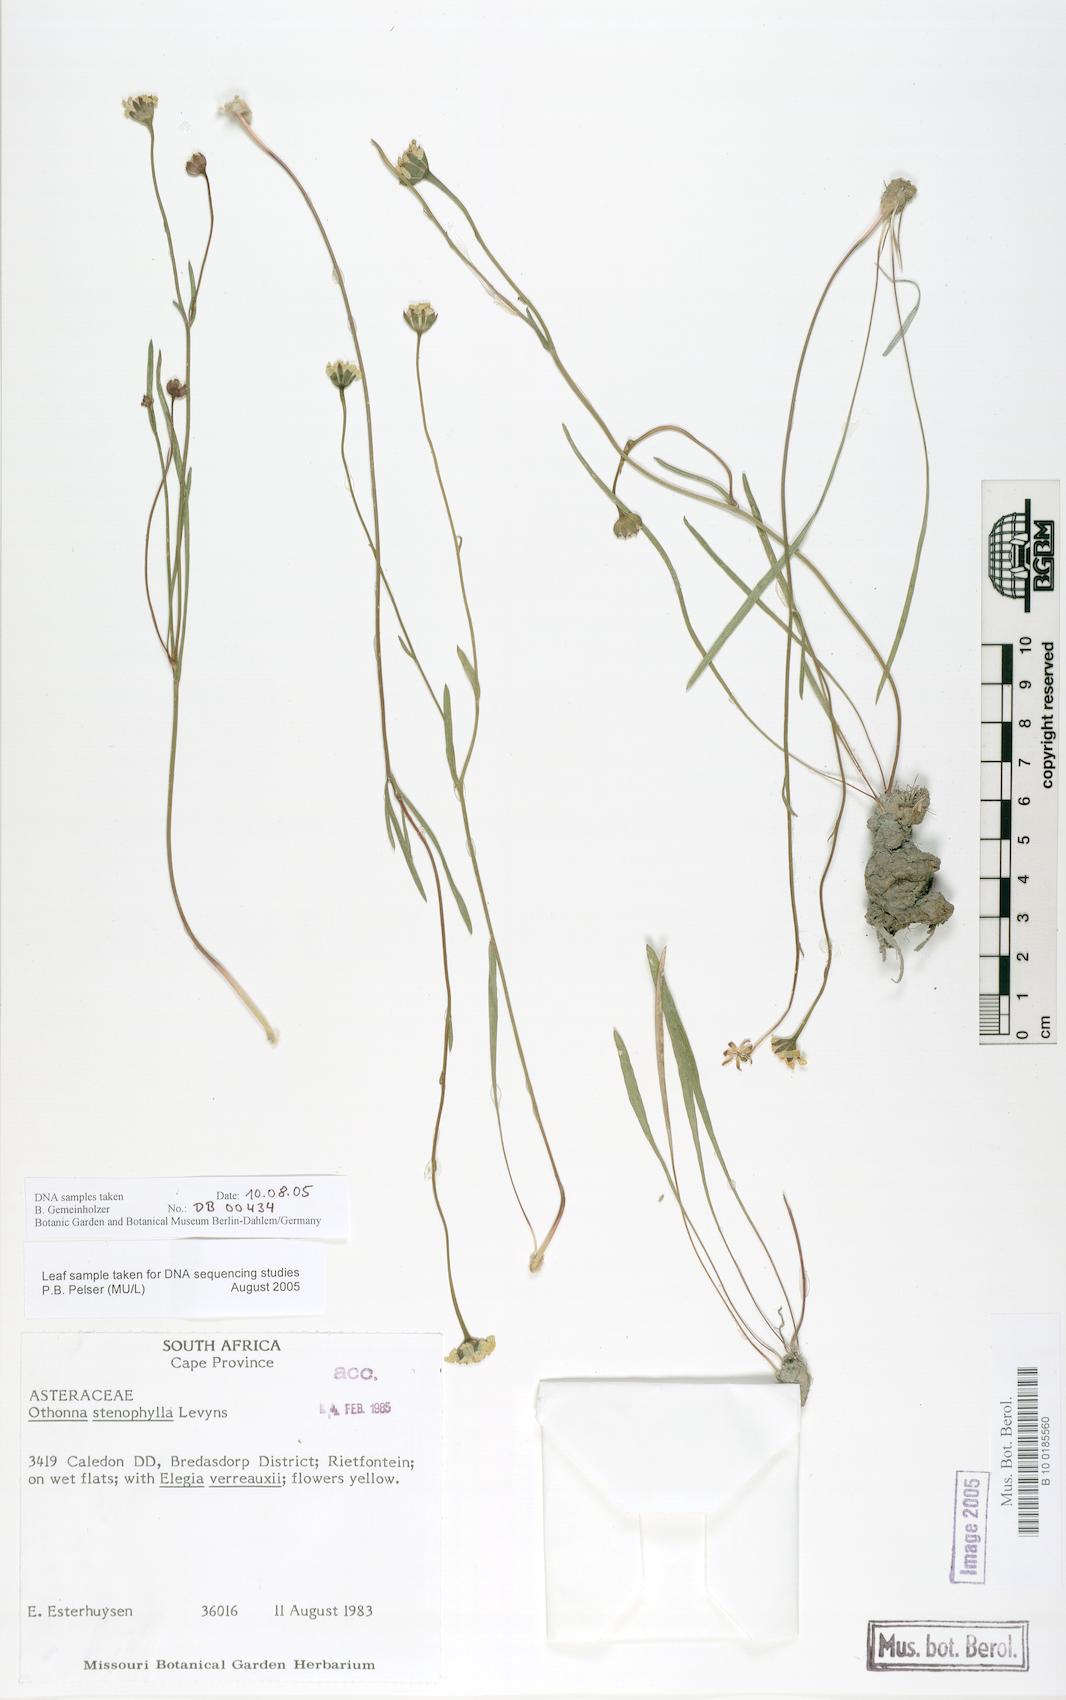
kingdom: Plantae
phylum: Tracheophyta
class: Magnoliopsida
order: Asterales
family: Asteraceae
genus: Othonna
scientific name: Othonna stenophylla
